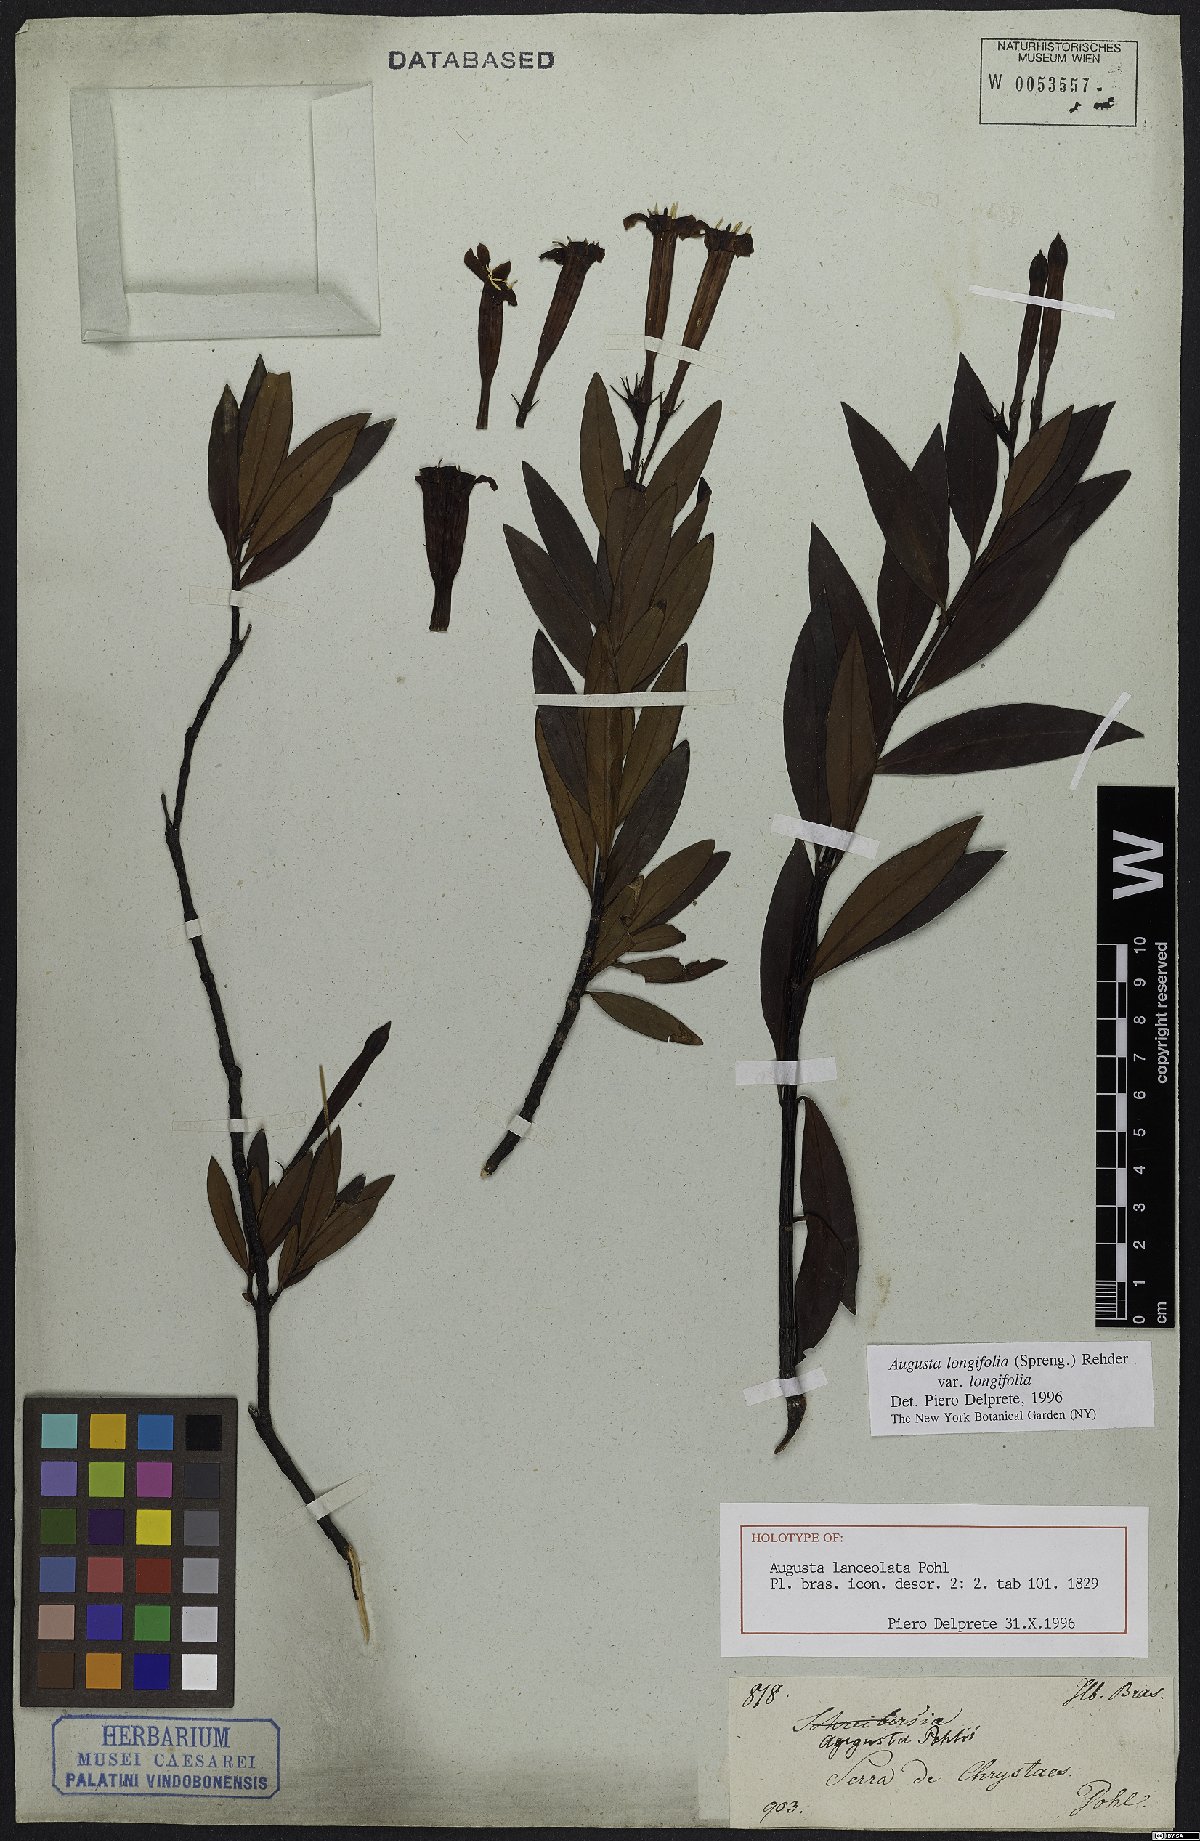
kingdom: Plantae
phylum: Tracheophyta
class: Magnoliopsida
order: Gentianales
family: Rubiaceae
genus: Augusta
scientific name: Augusta longifolia
